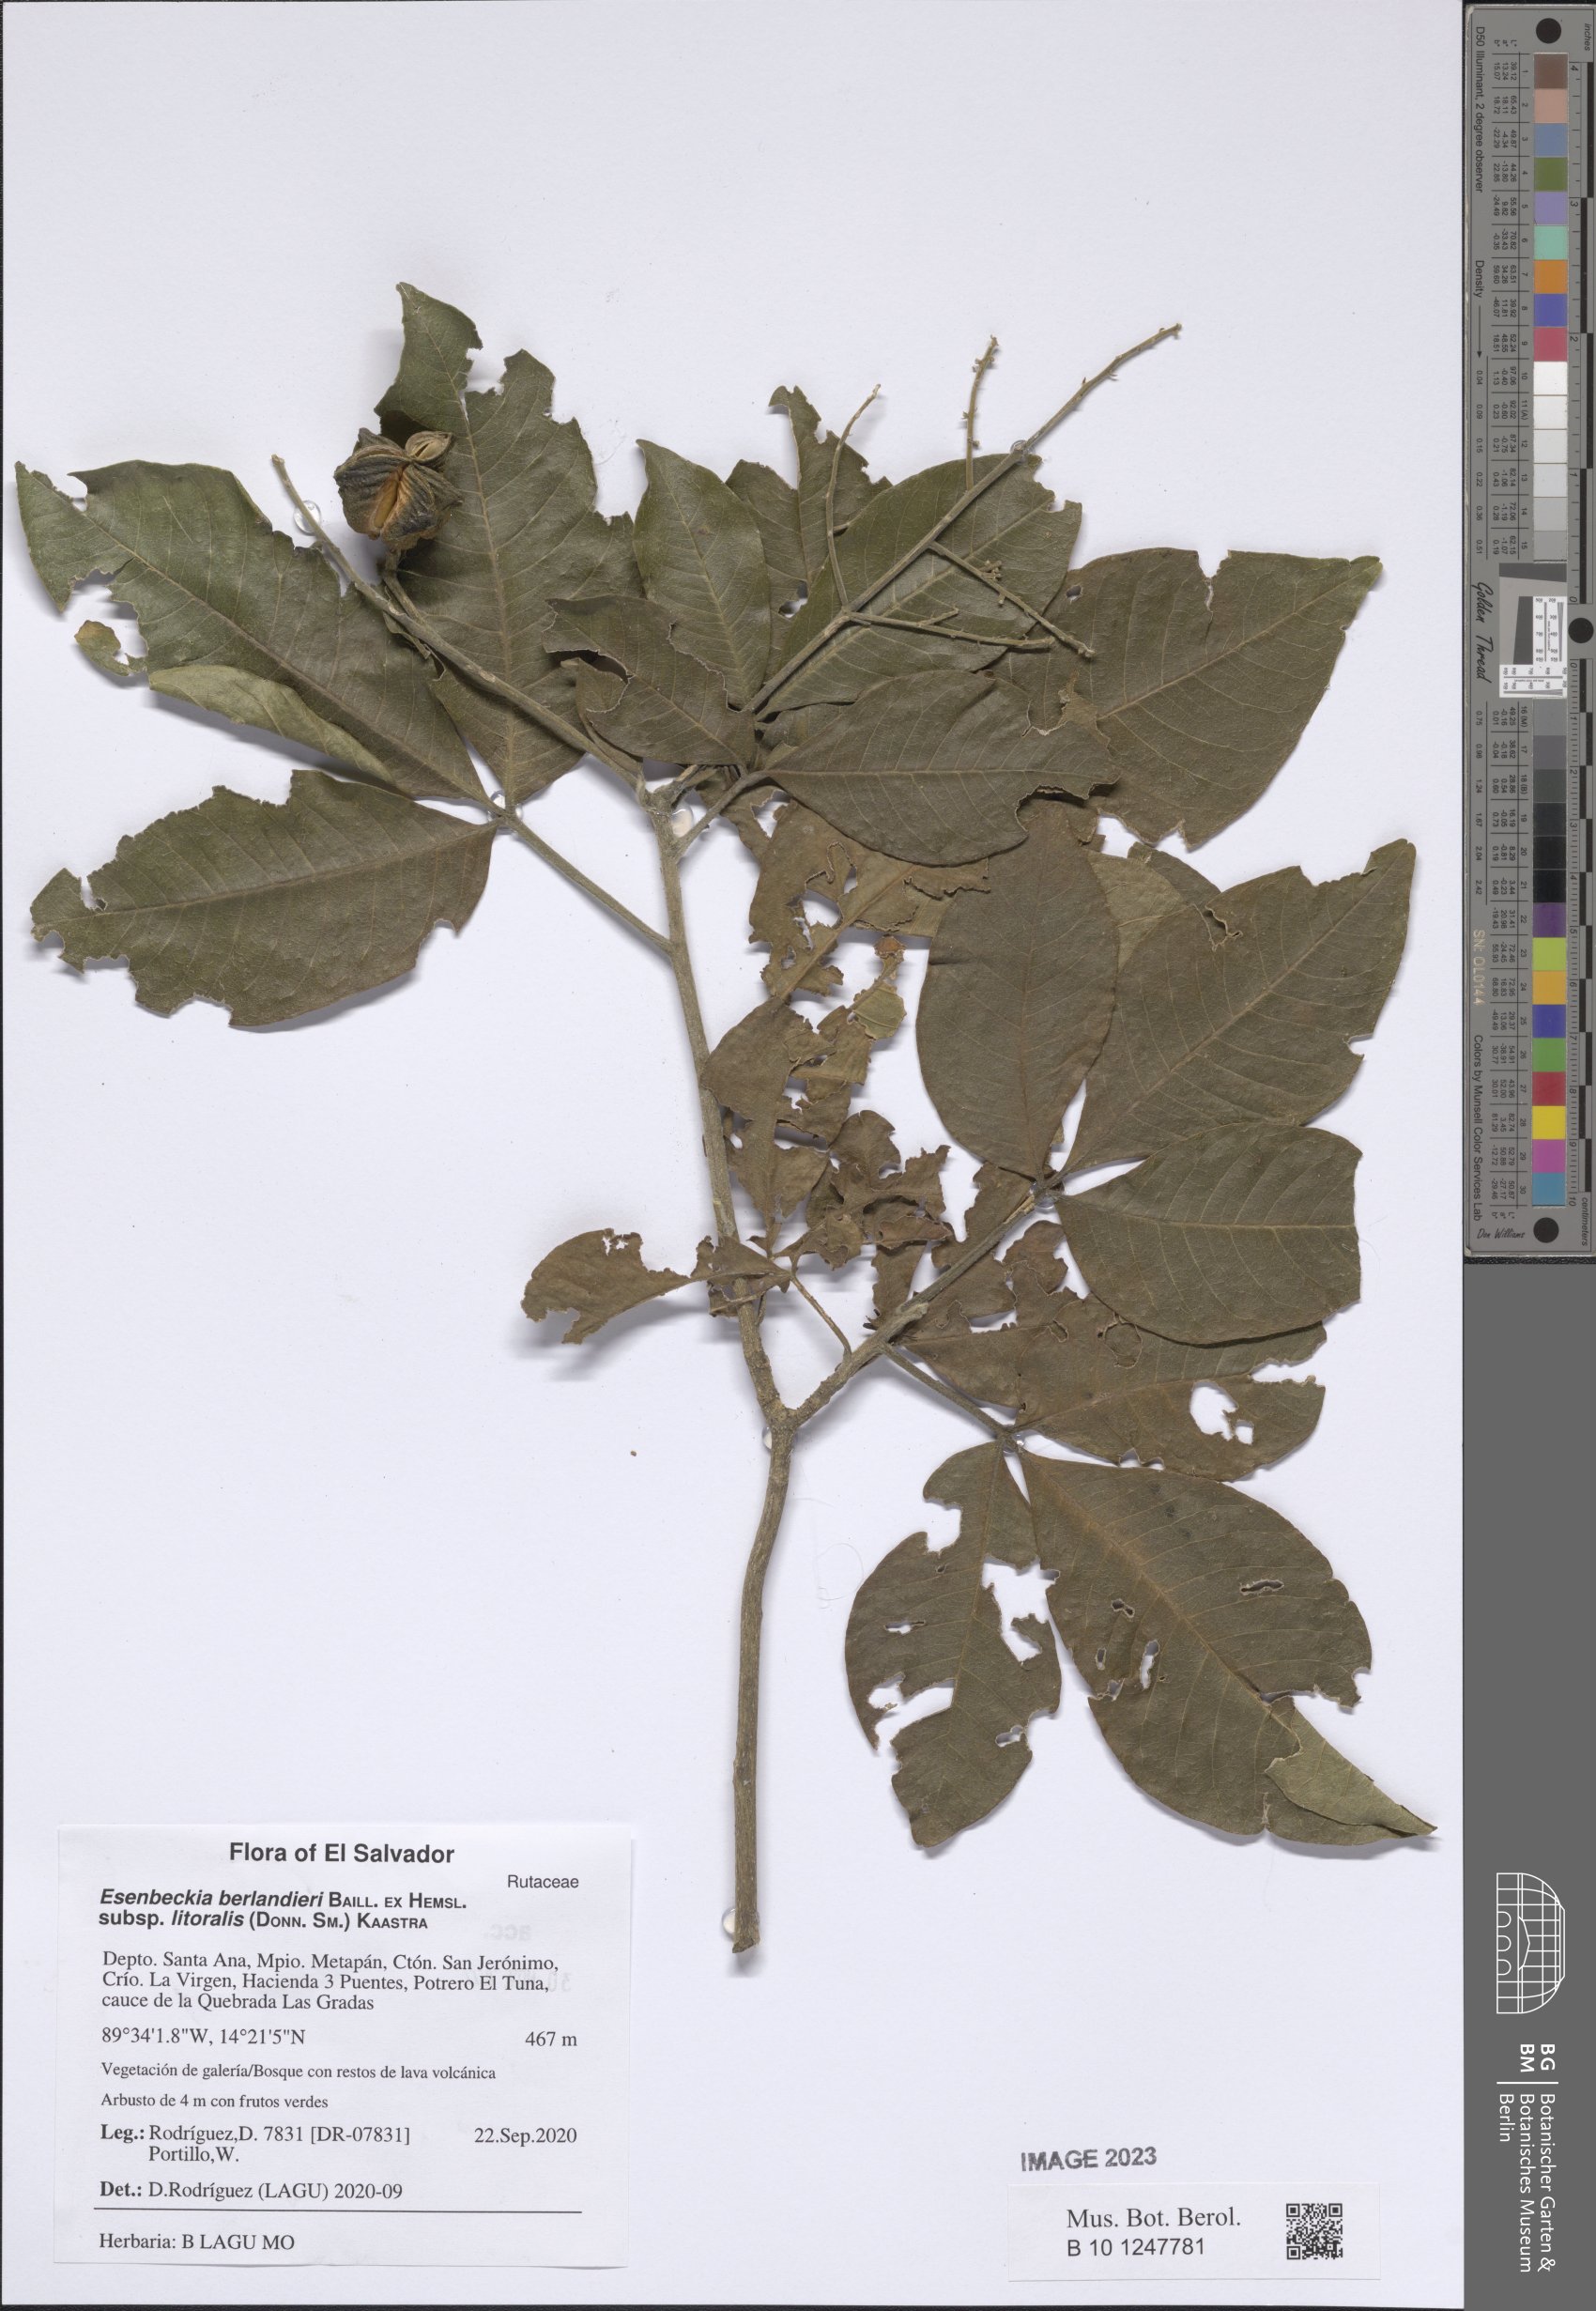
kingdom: Plantae
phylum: Tracheophyta
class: Magnoliopsida
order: Sapindales
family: Rutaceae
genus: Esenbeckia
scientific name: Esenbeckia berlandieri
